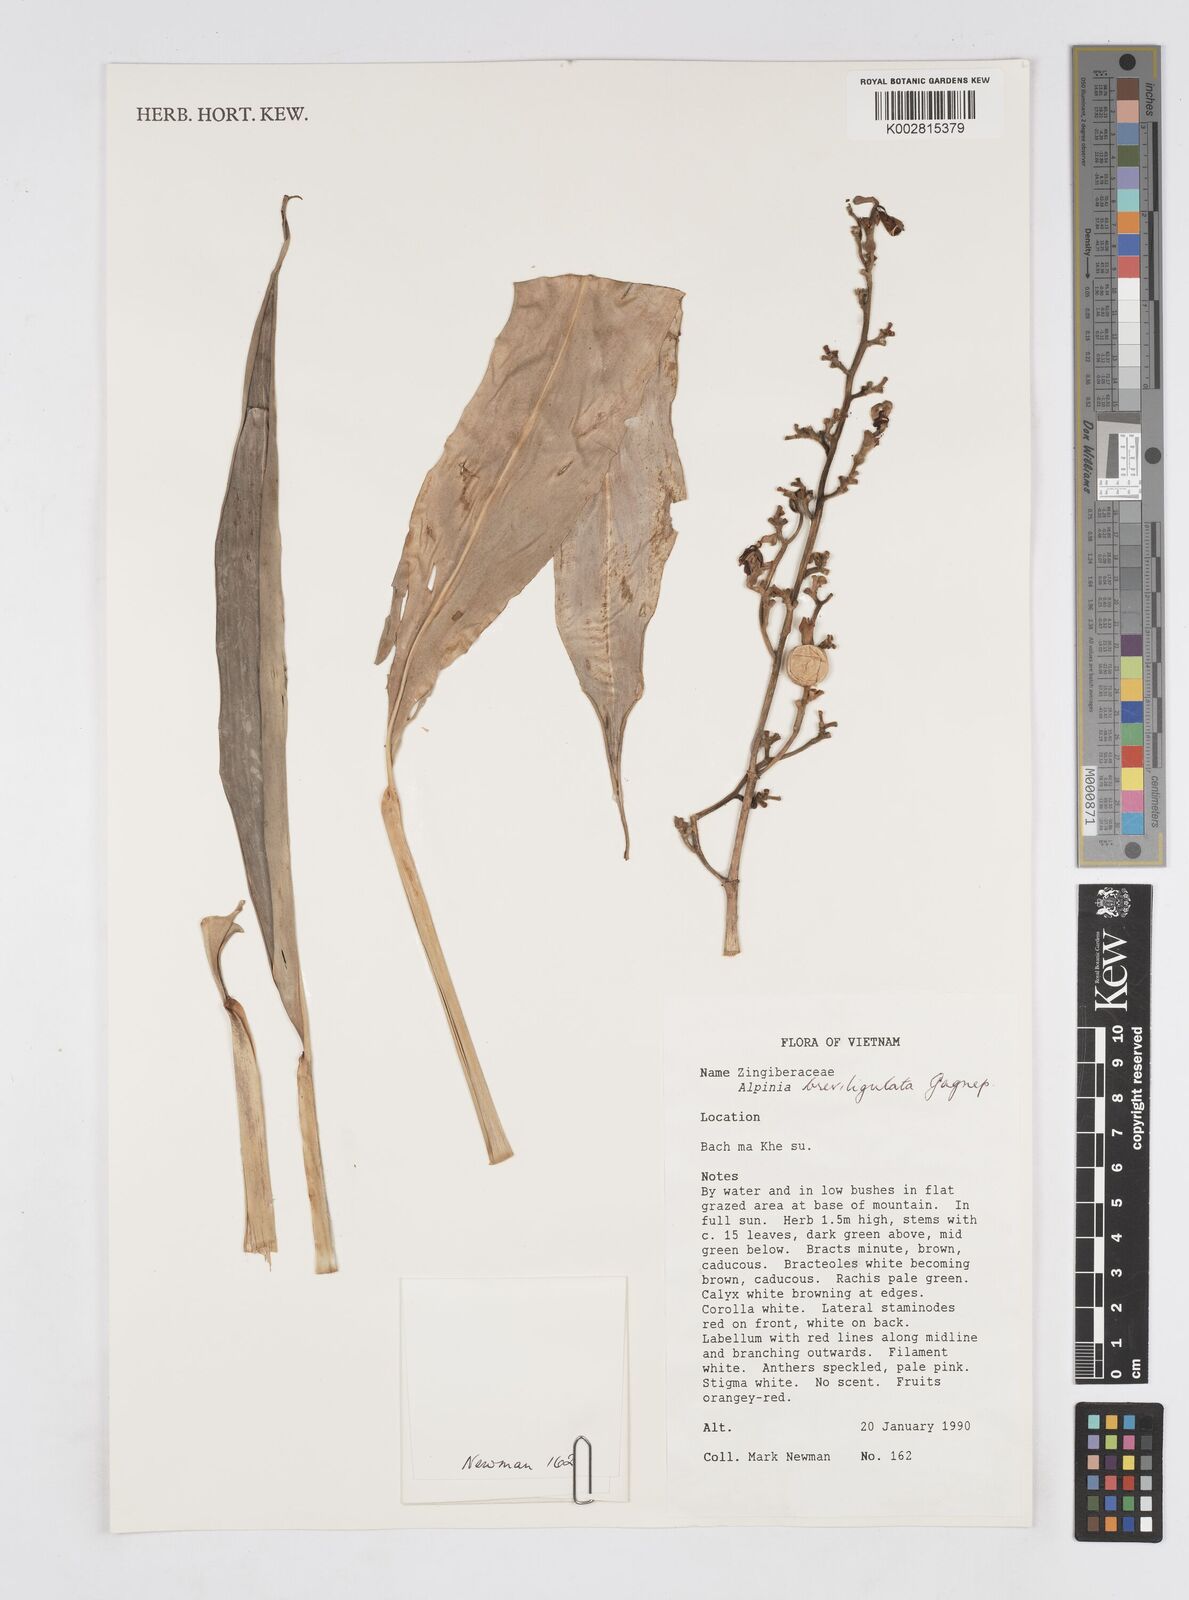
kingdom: Plantae
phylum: Tracheophyta
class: Liliopsida
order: Zingiberales
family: Zingiberaceae
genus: Alpinia
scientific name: Alpinia breviligulata
